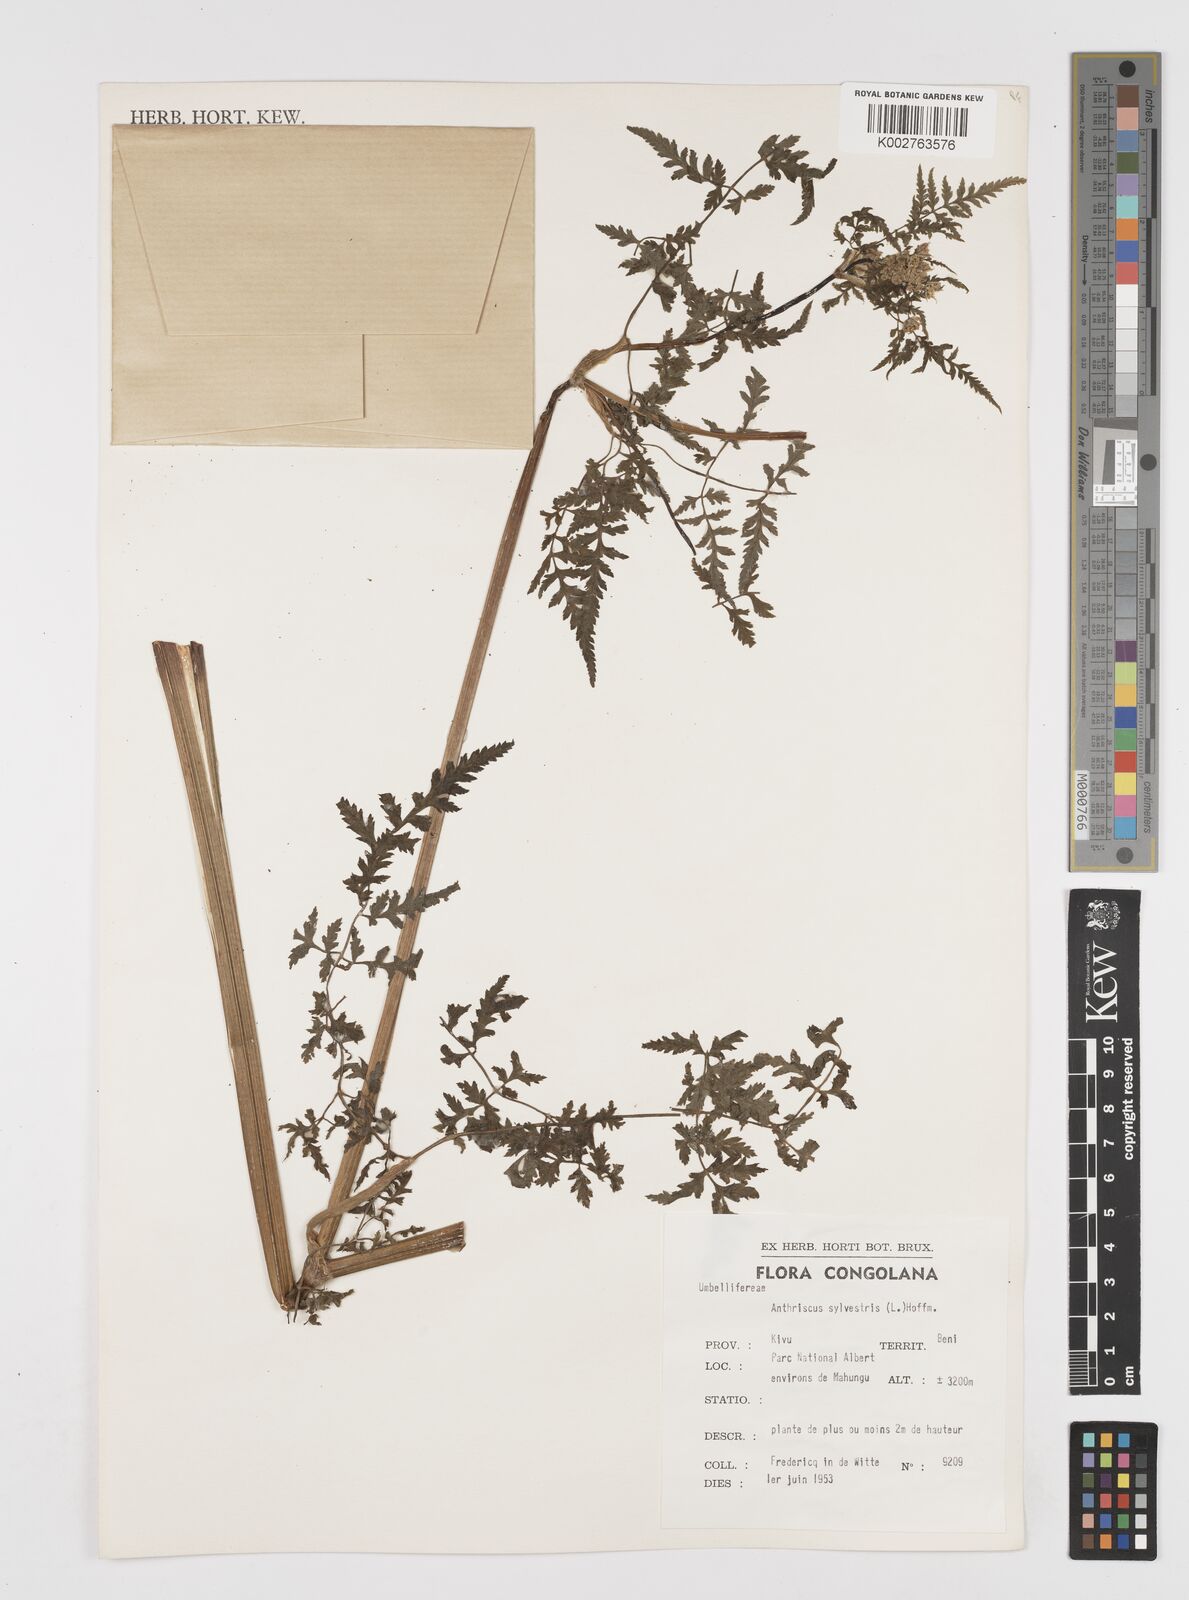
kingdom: Plantae
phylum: Tracheophyta
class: Magnoliopsida
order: Apiales
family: Apiaceae
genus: Anthriscus
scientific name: Anthriscus sylvestris
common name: Cow parsley
